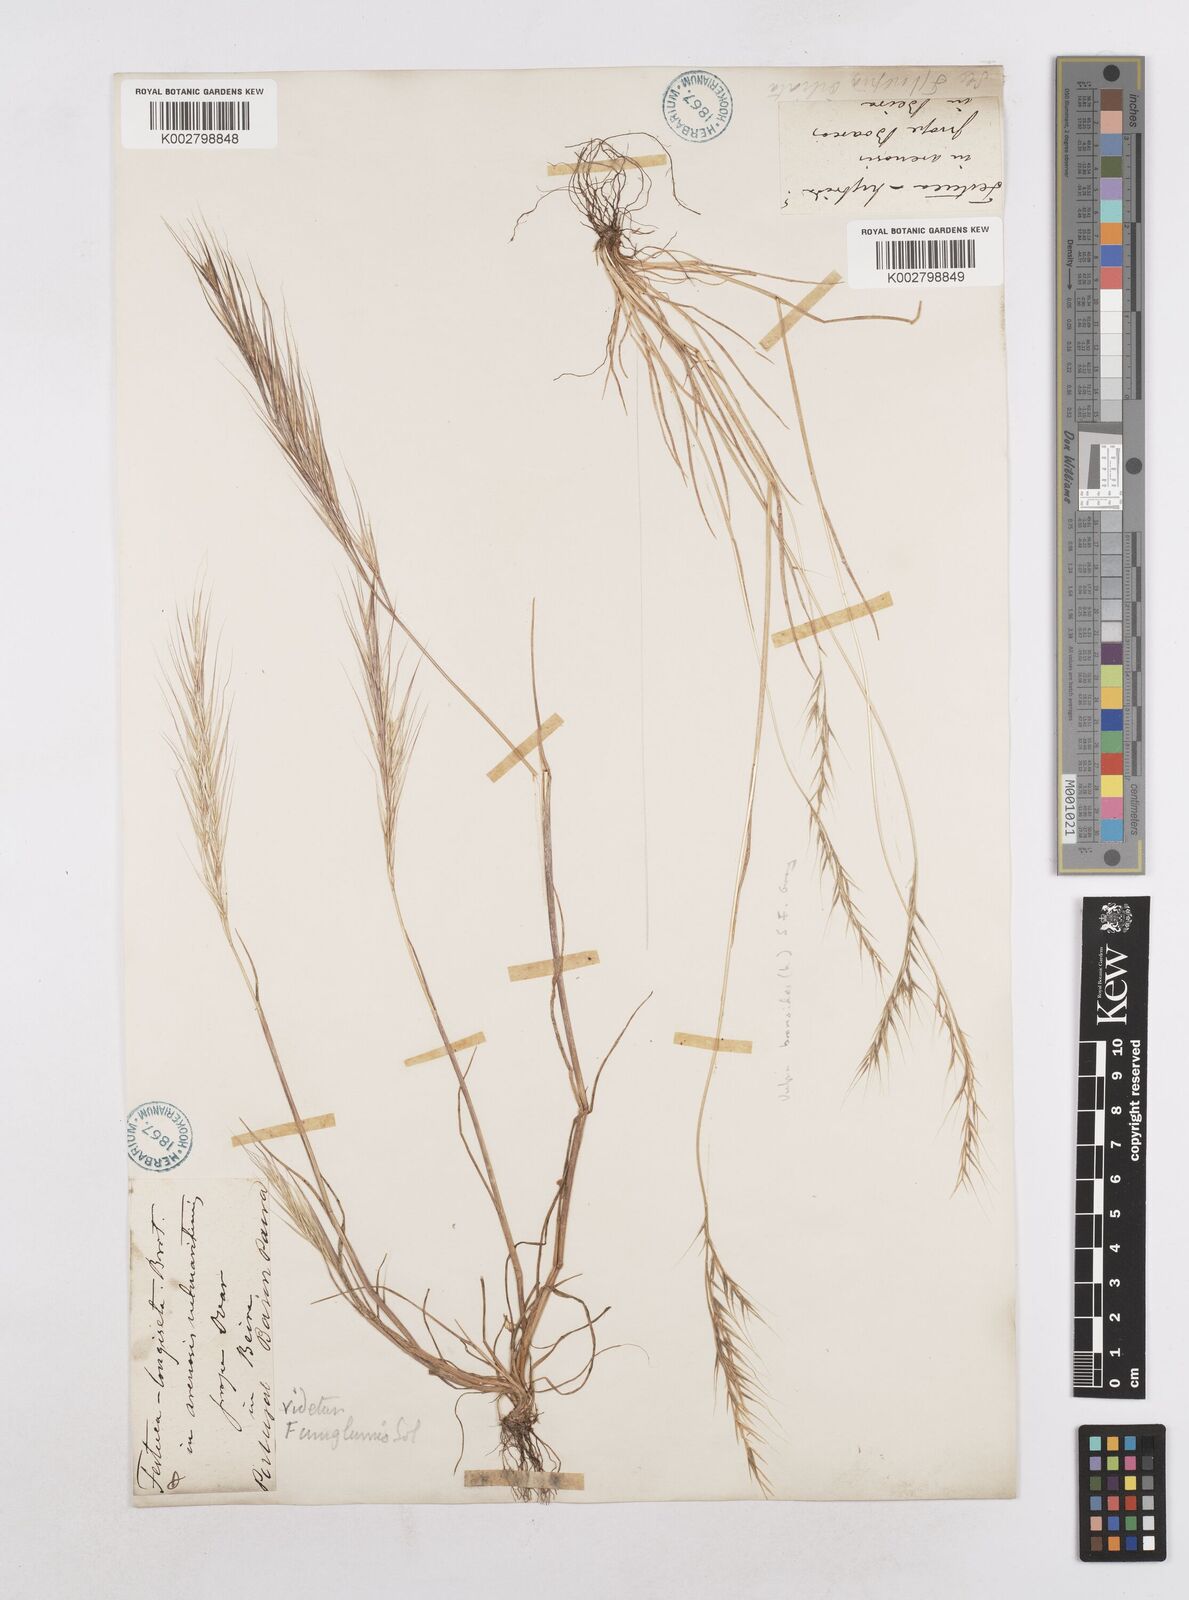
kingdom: Plantae
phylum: Tracheophyta
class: Liliopsida
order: Poales
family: Poaceae
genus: Festuca
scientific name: Festuca membranacea
